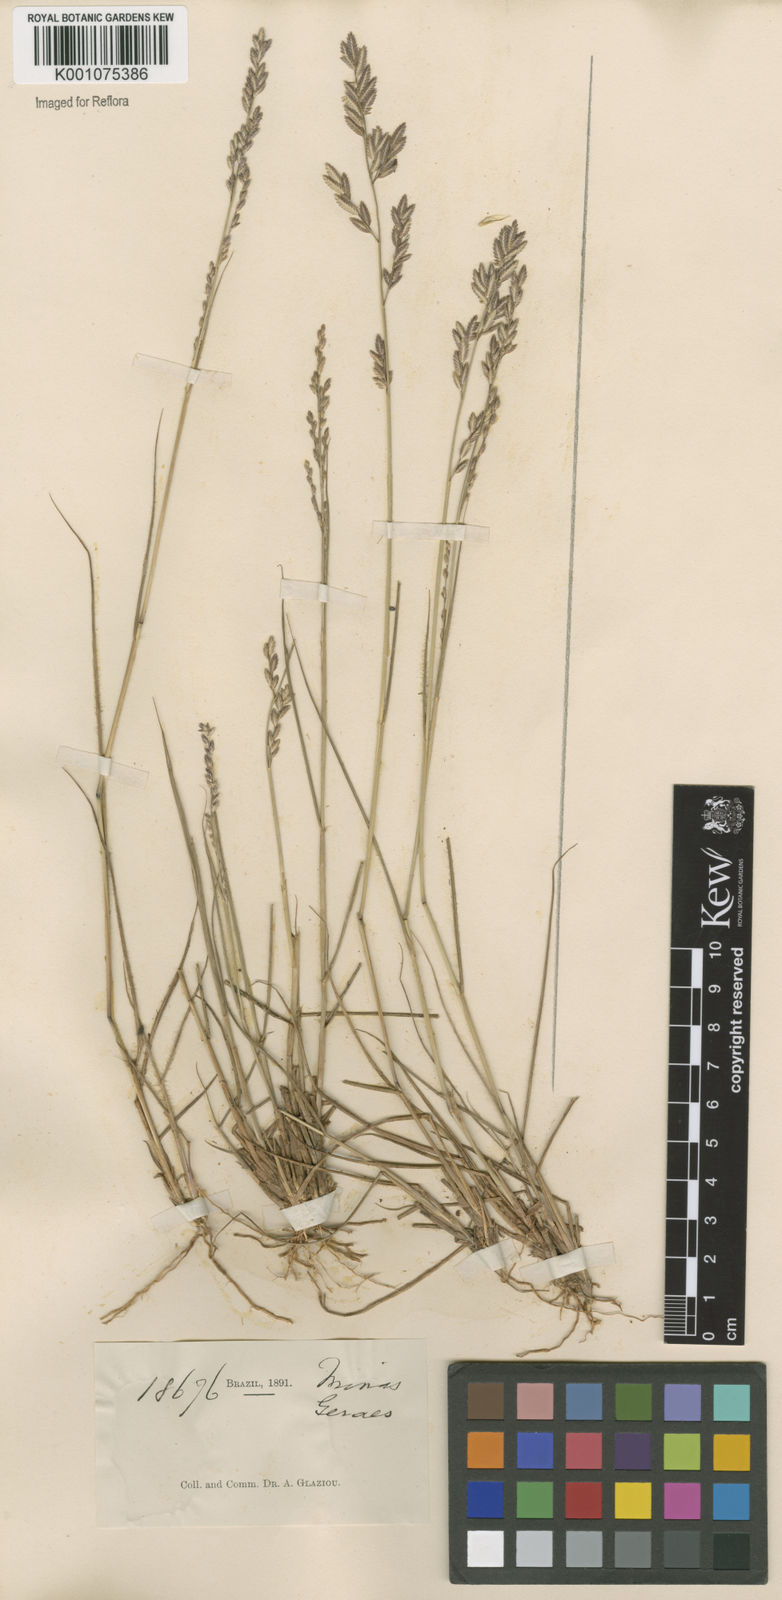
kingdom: Plantae
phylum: Tracheophyta
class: Liliopsida
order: Poales
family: Poaceae
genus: Eragrostis
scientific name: Eragrostis solida
